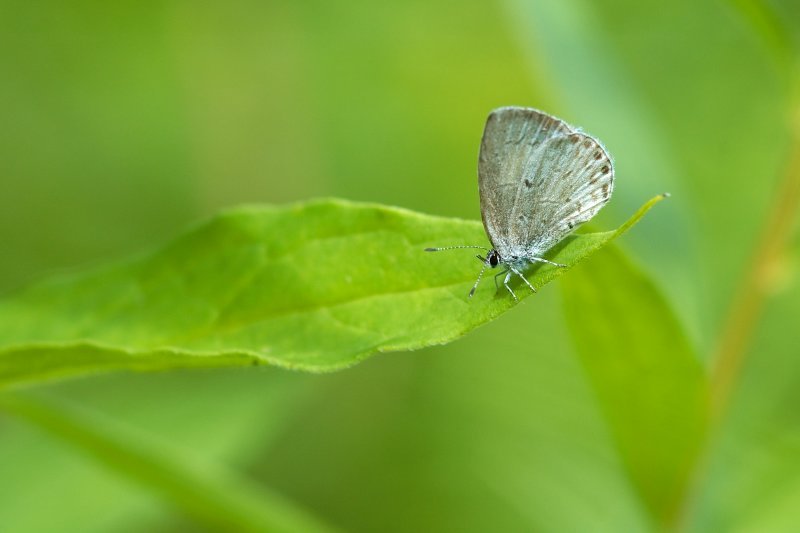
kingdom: Animalia
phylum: Arthropoda
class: Insecta
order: Lepidoptera
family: Lycaenidae
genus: Cyaniris
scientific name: Cyaniris neglecta
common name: Summer Azure
